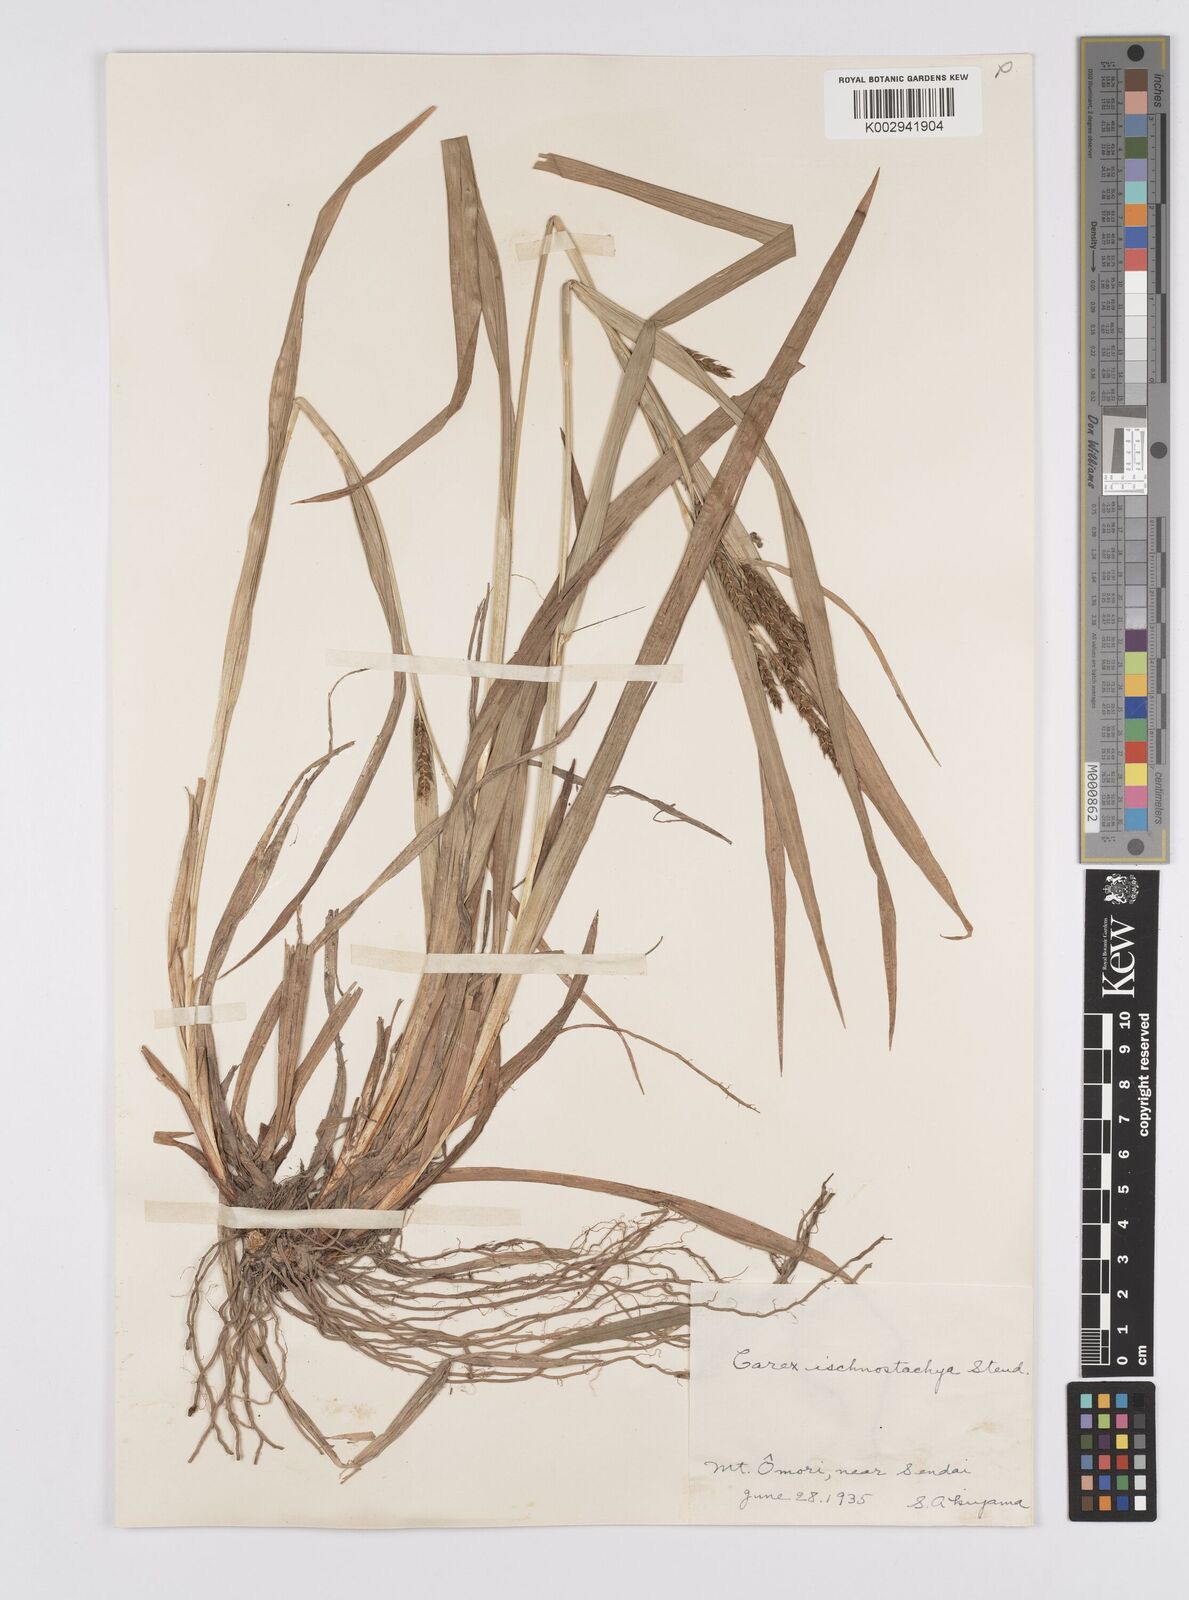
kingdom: Plantae
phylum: Tracheophyta
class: Liliopsida
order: Poales
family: Cyperaceae
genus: Carex
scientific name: Carex ischnostachya
